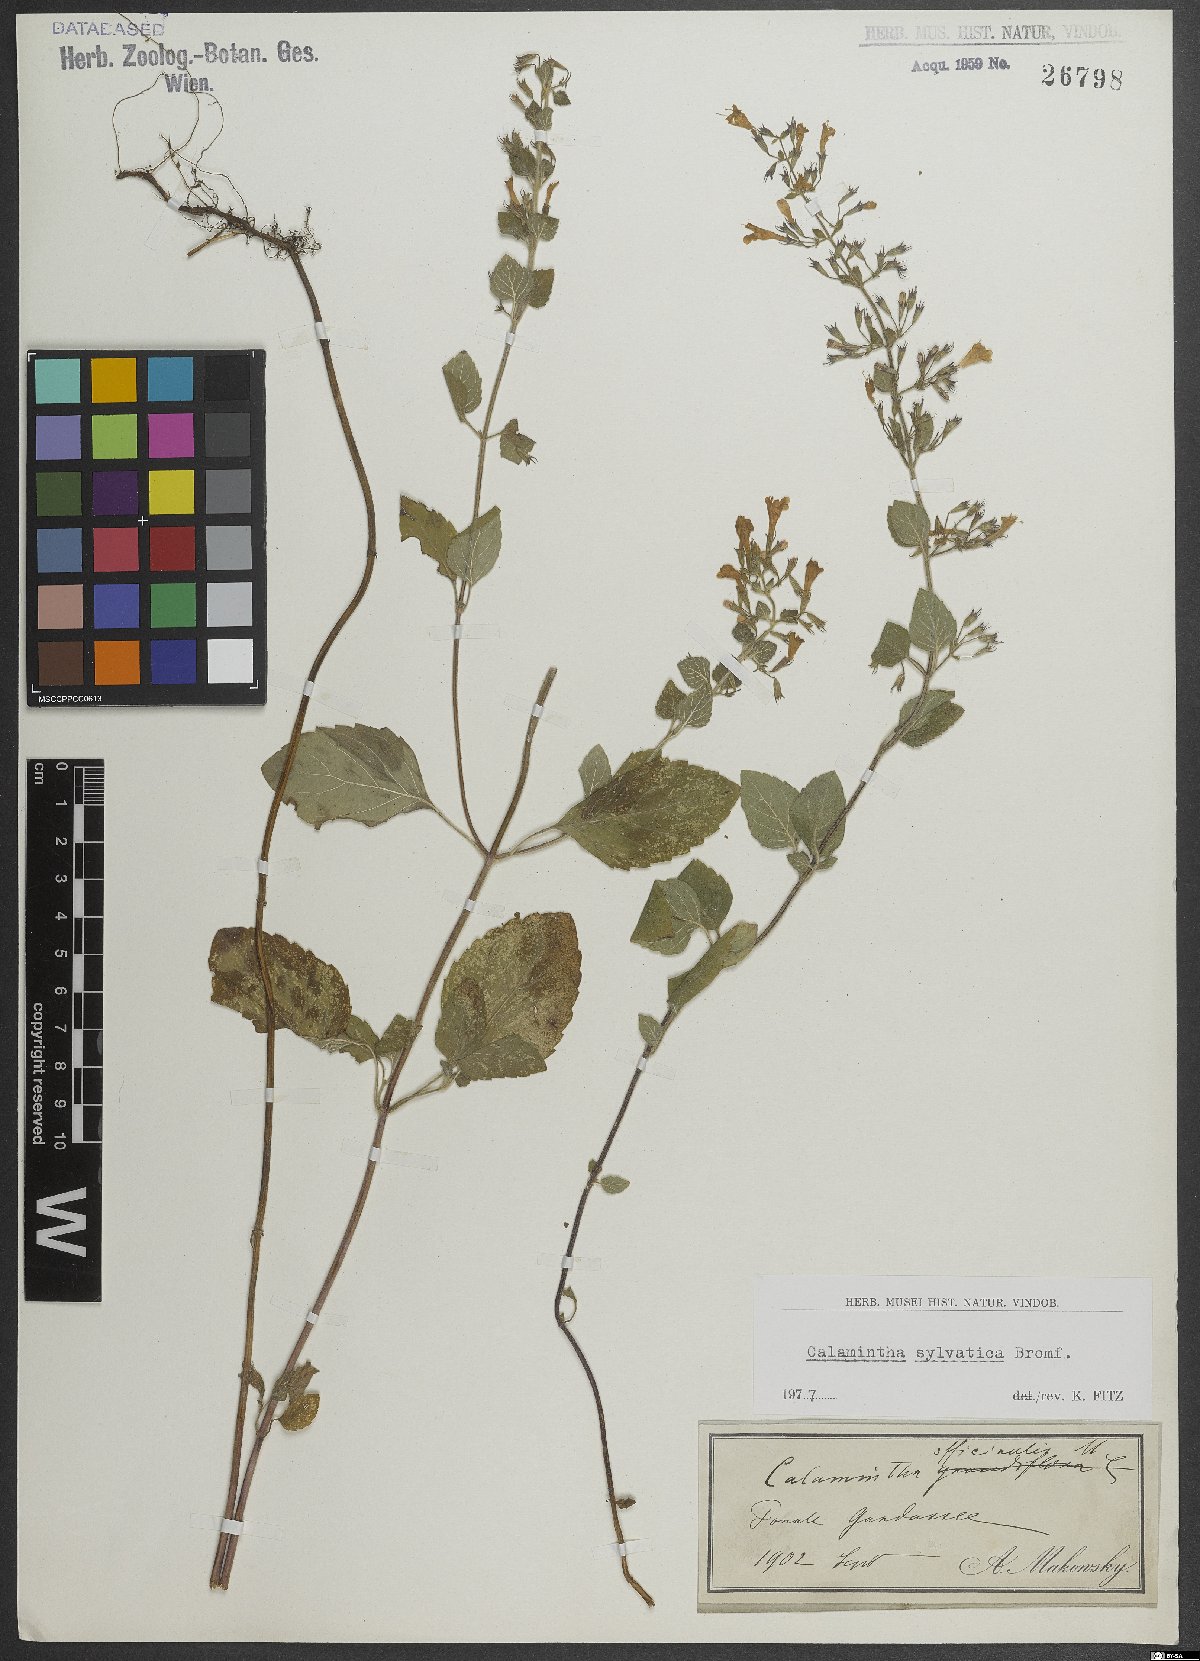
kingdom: Plantae
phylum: Tracheophyta
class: Magnoliopsida
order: Lamiales
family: Lamiaceae
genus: Clinopodium
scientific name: Clinopodium menthifolium
